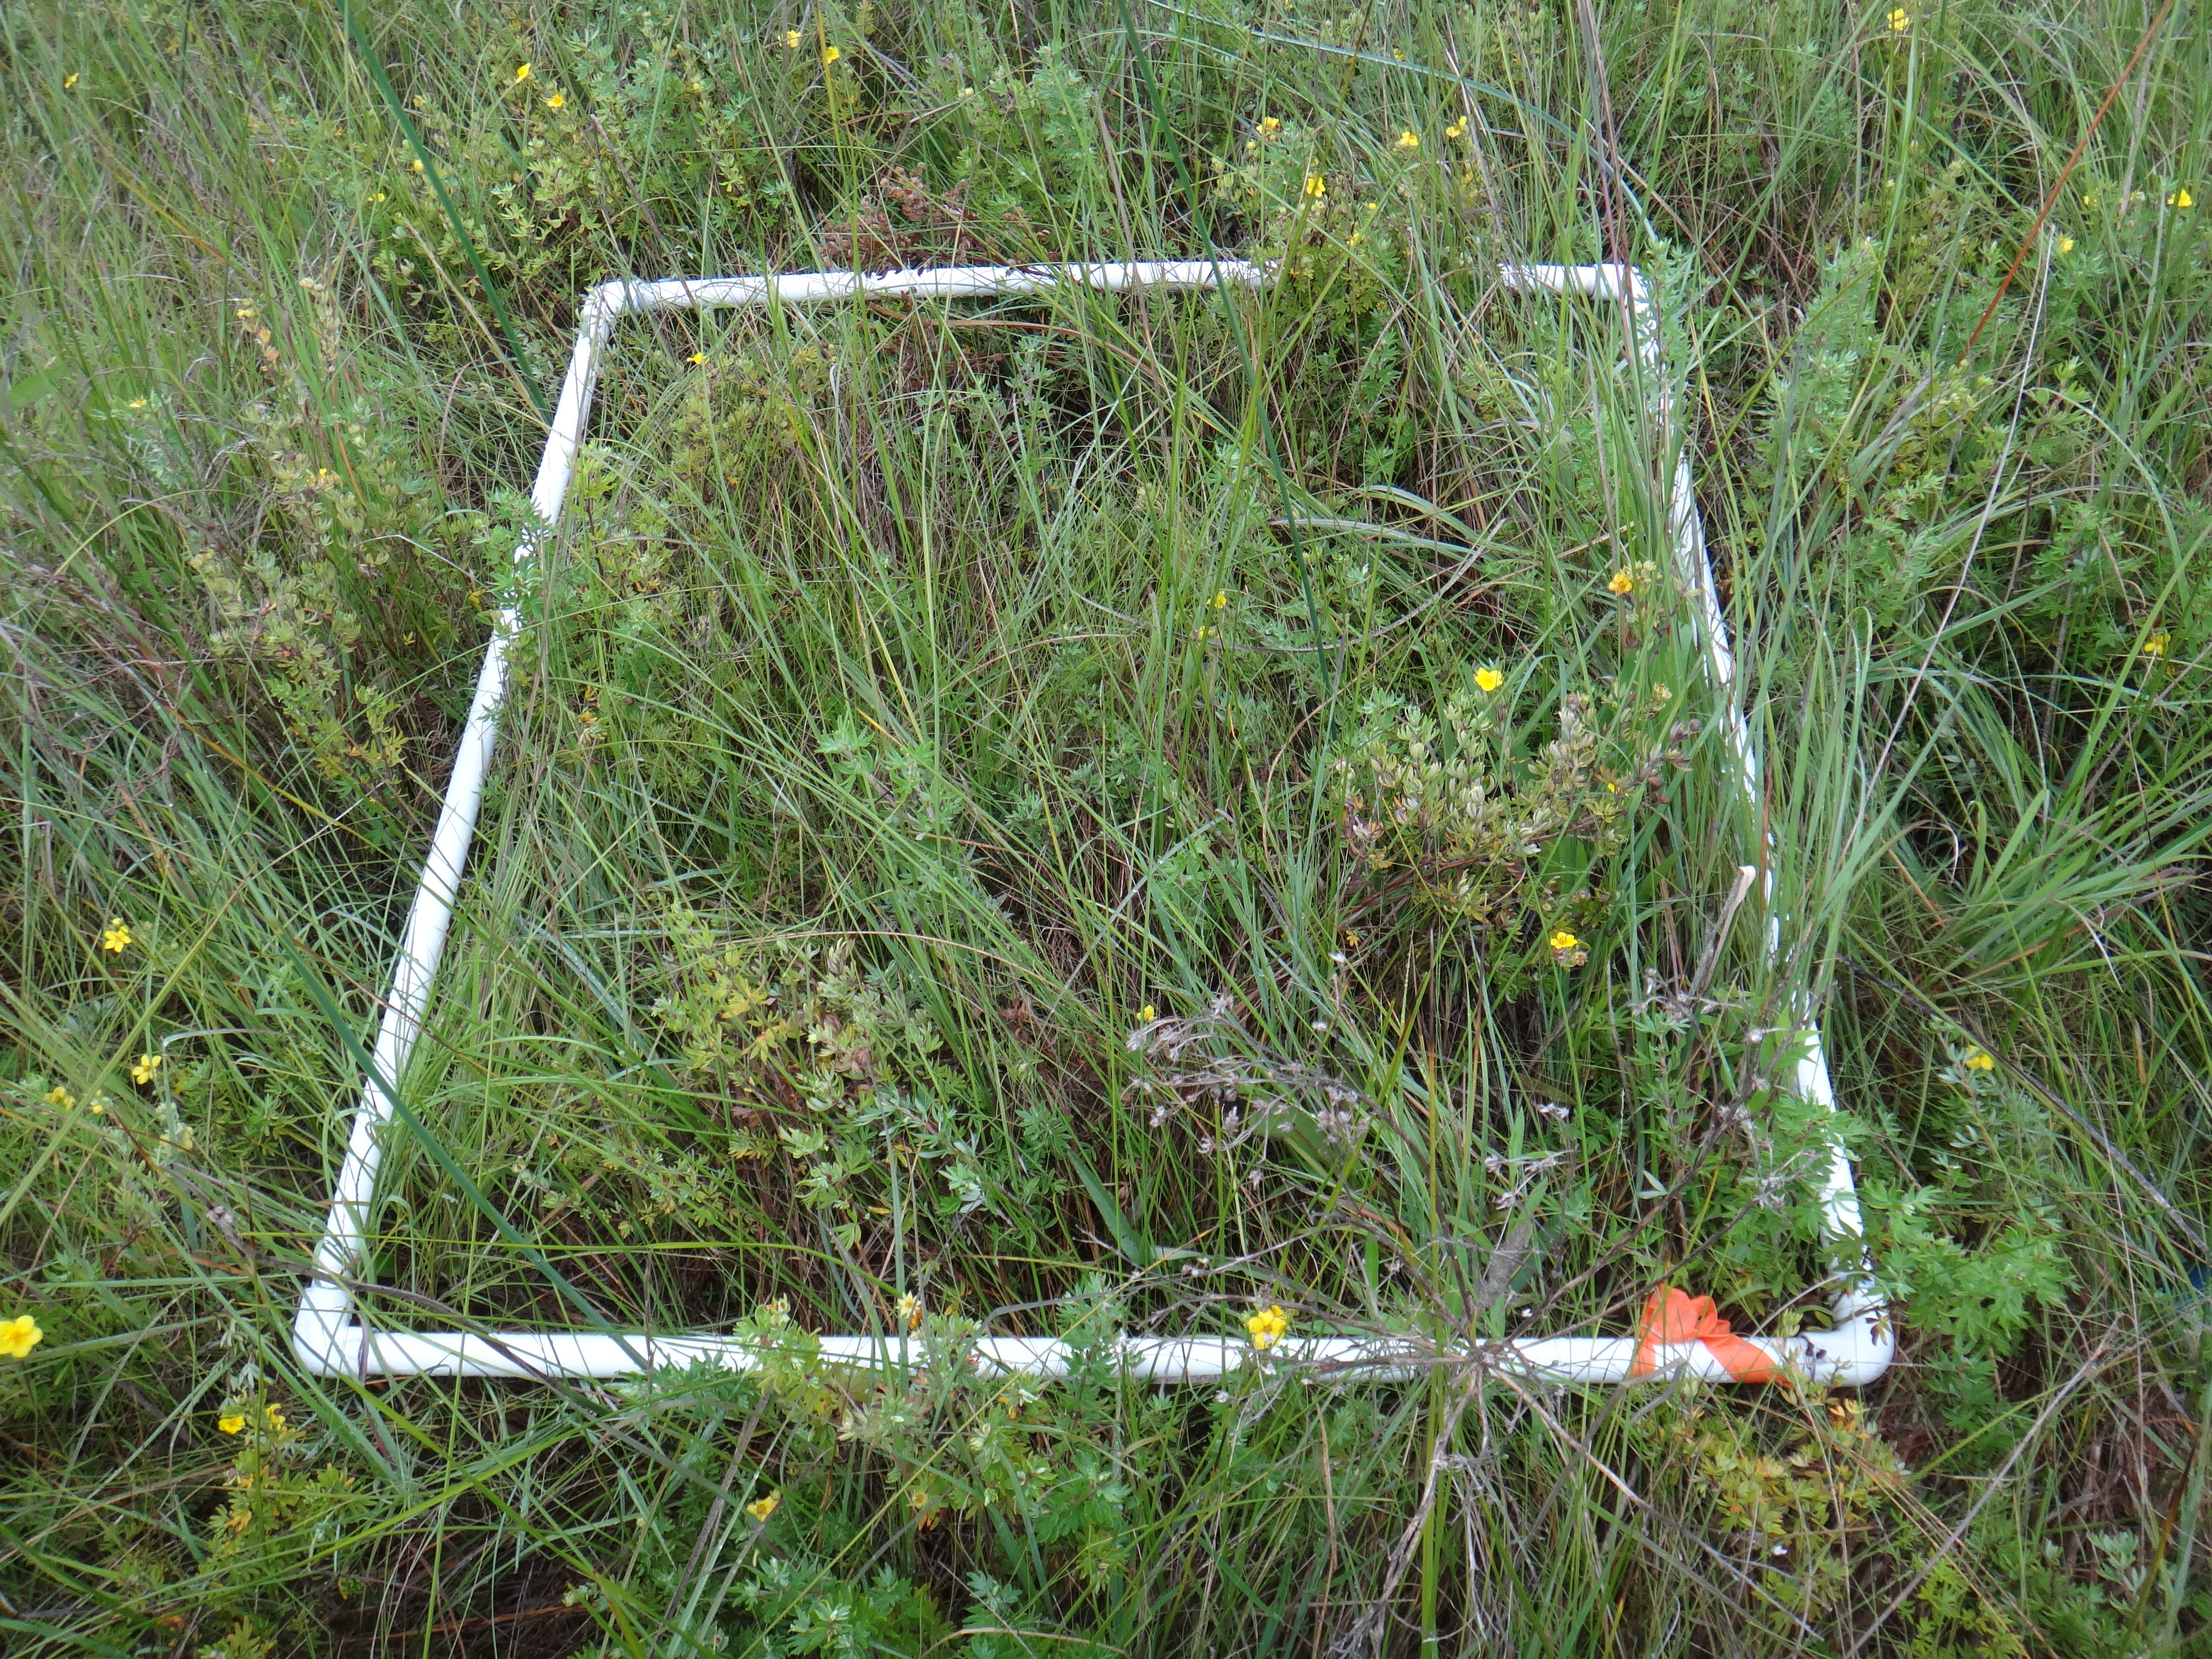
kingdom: Plantae
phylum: Tracheophyta
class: Liliopsida
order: Poales
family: Poaceae
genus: Muhlenbergia
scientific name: Muhlenbergia mexicana
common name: Mexican muhly
